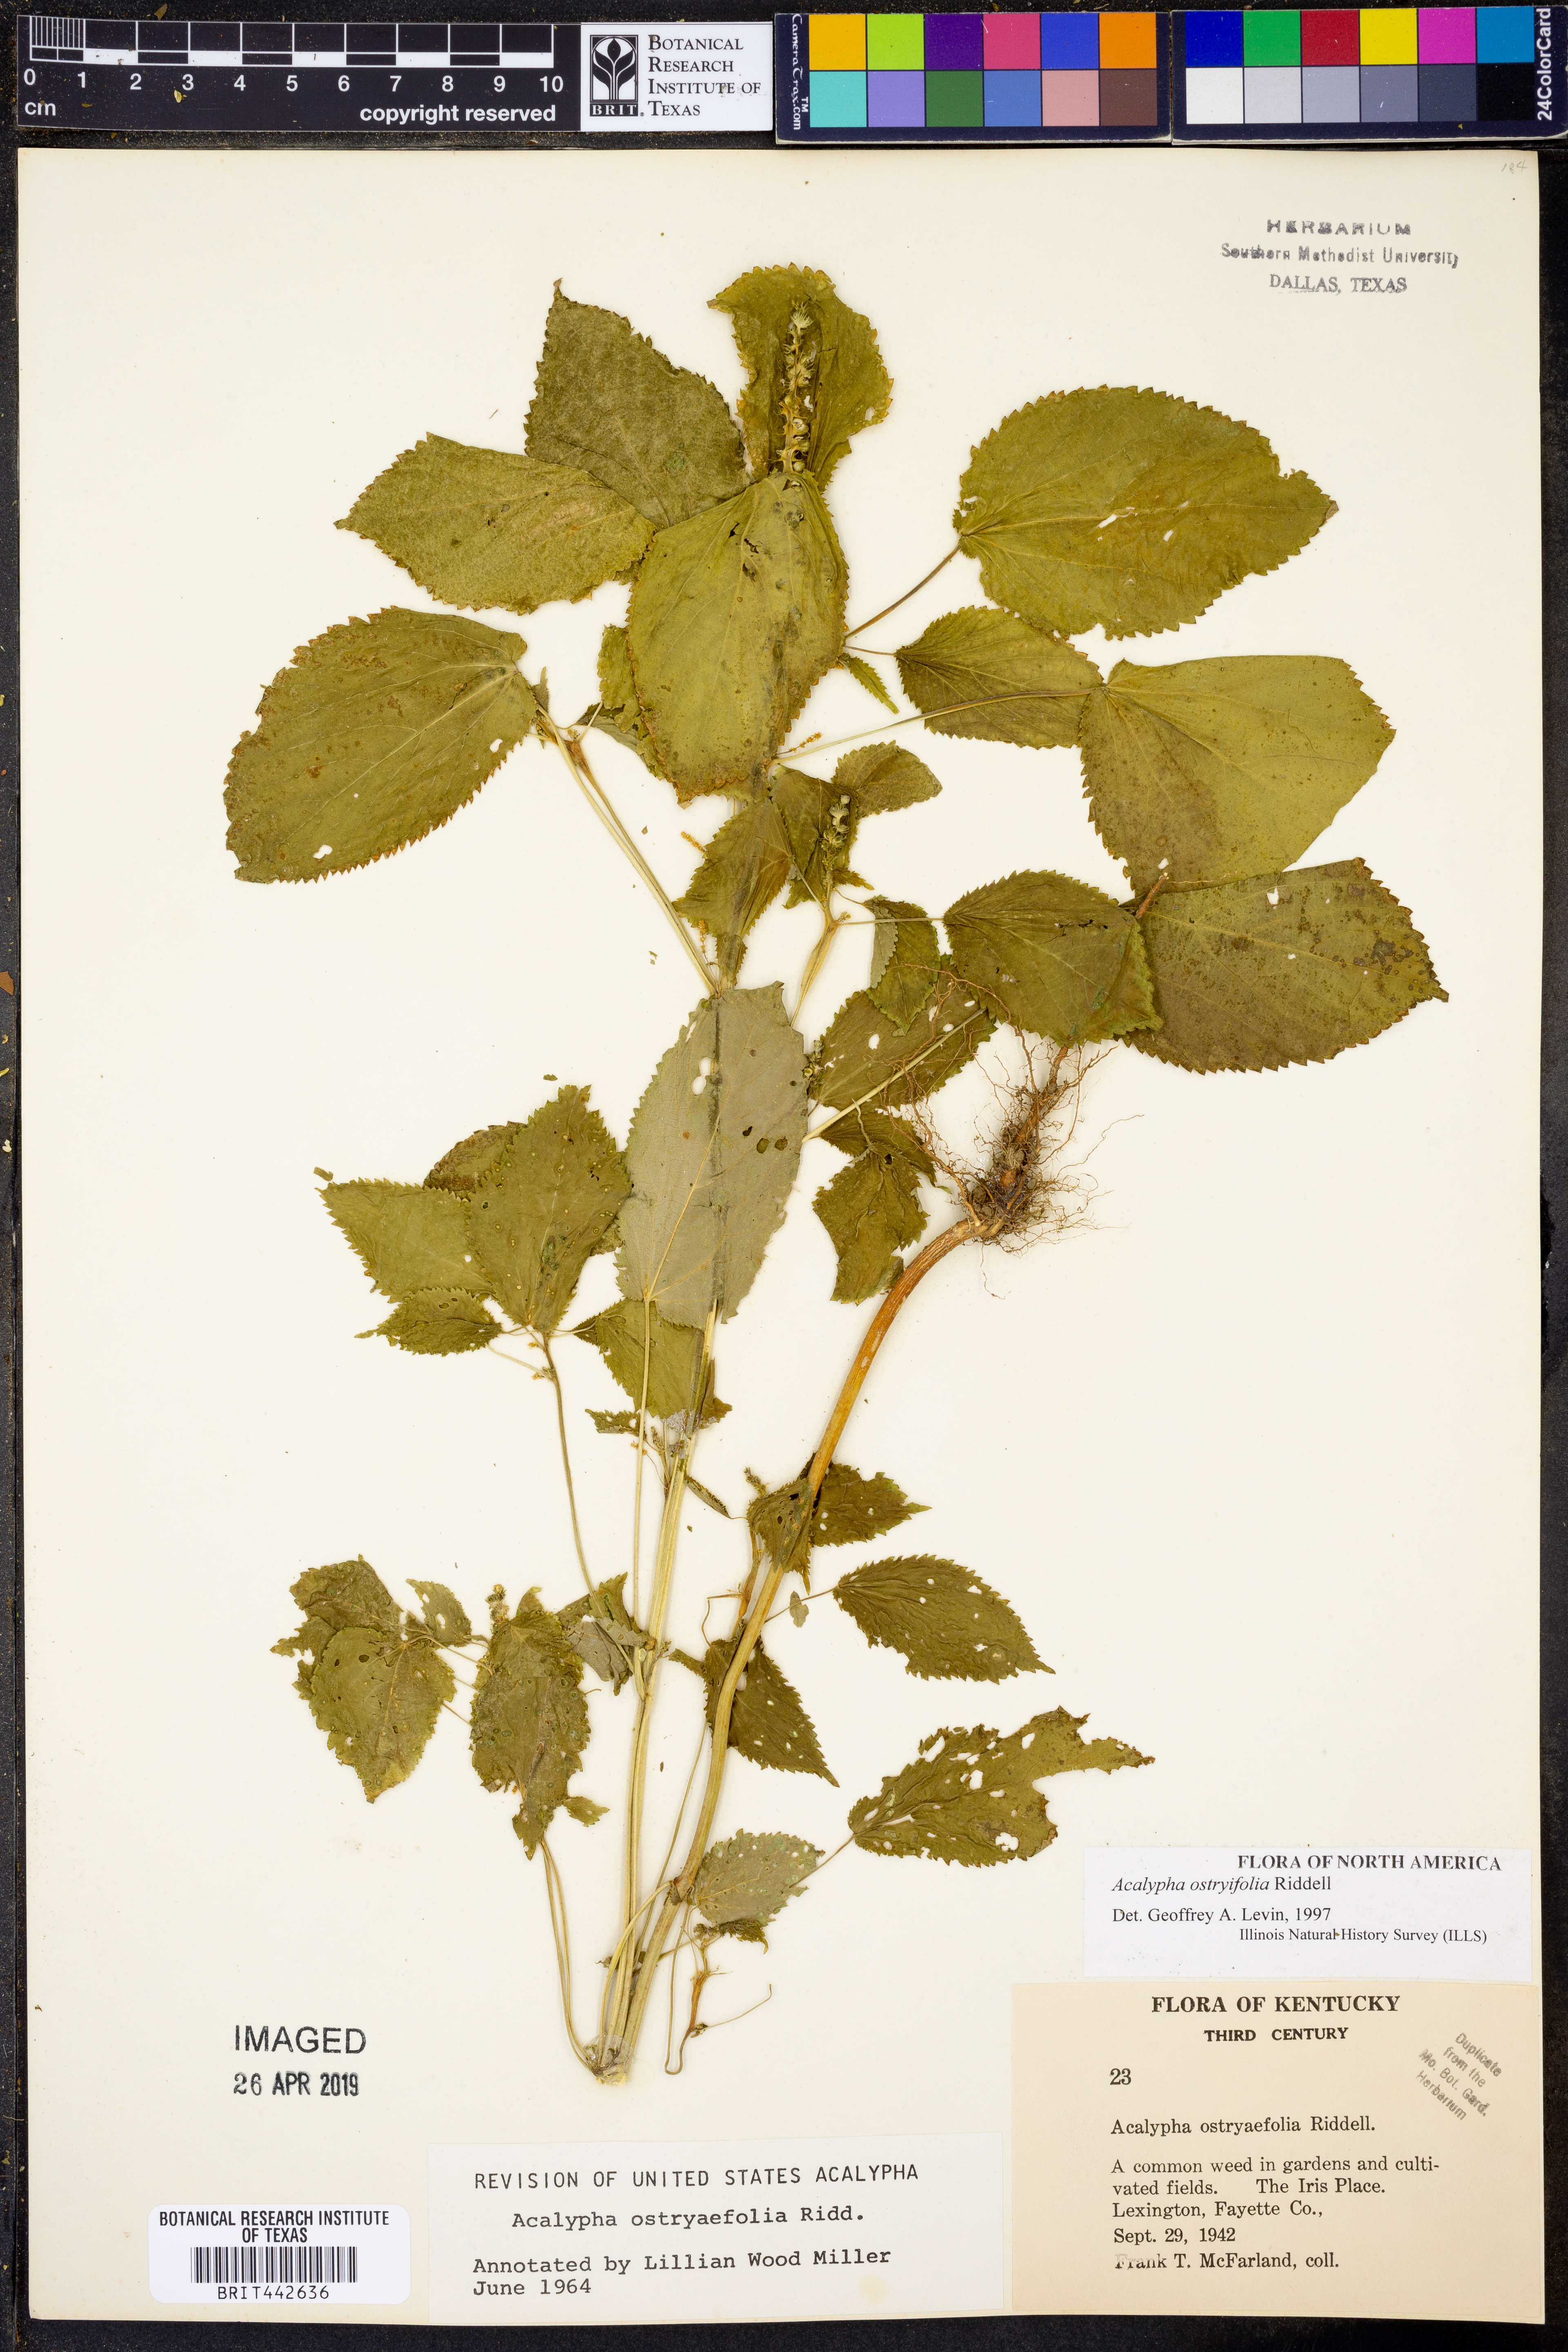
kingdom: Plantae
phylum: Tracheophyta
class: Magnoliopsida
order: Malpighiales
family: Euphorbiaceae
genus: Acalypha
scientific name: Acalypha persimilis
